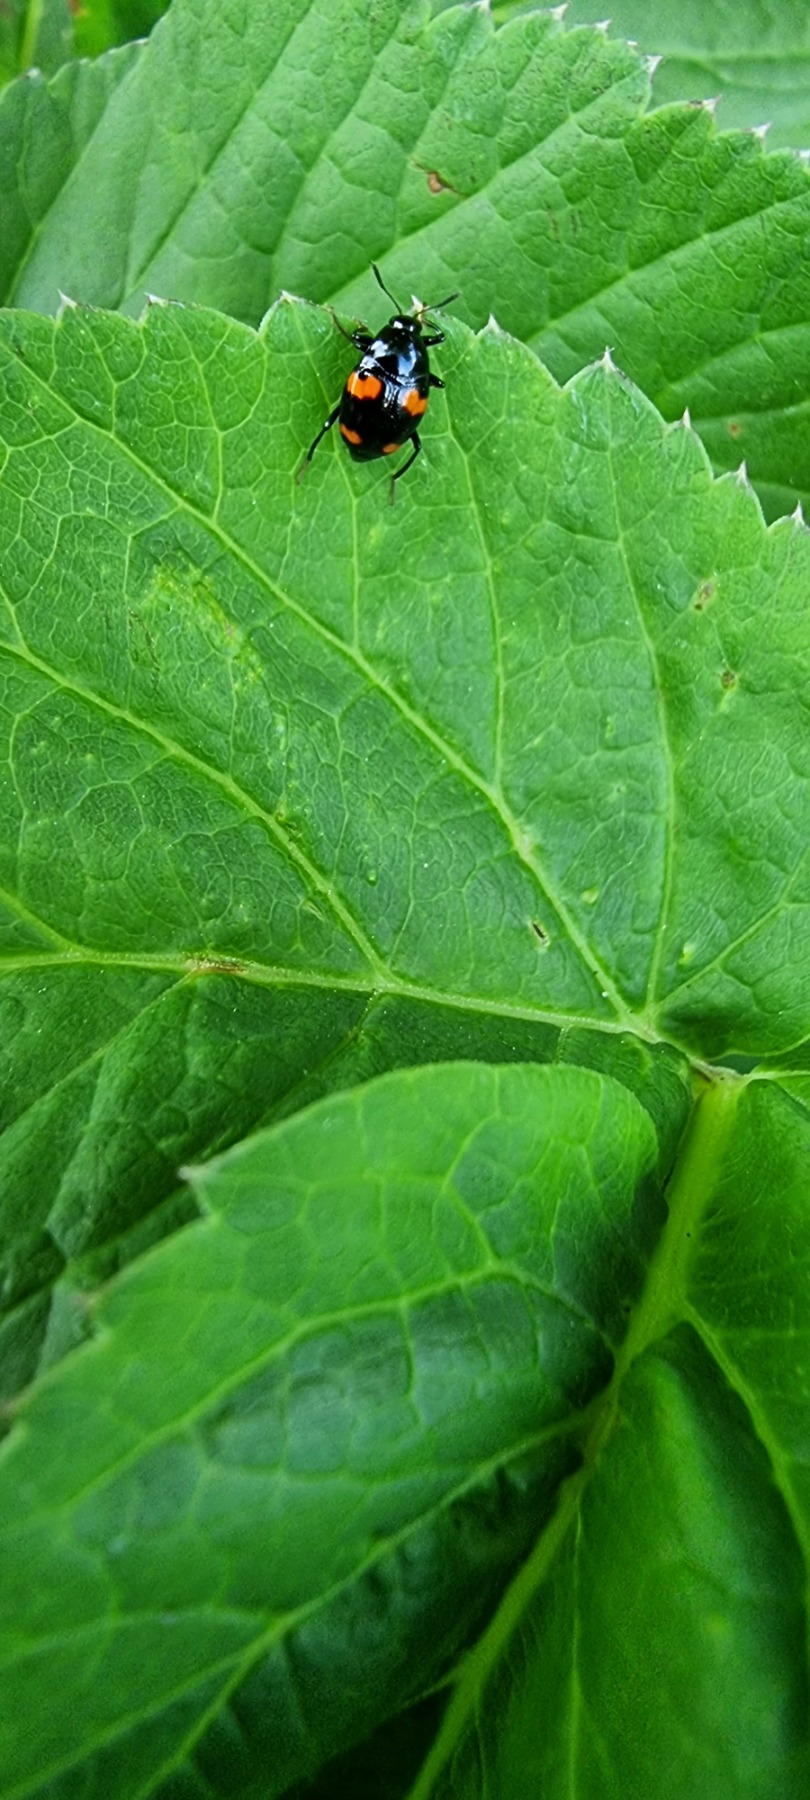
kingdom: Animalia
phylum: Arthropoda
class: Insecta
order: Coleoptera
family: Staphylinidae
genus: Scaphidium
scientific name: Scaphidium quadrimaculatum
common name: Dråberovbille
